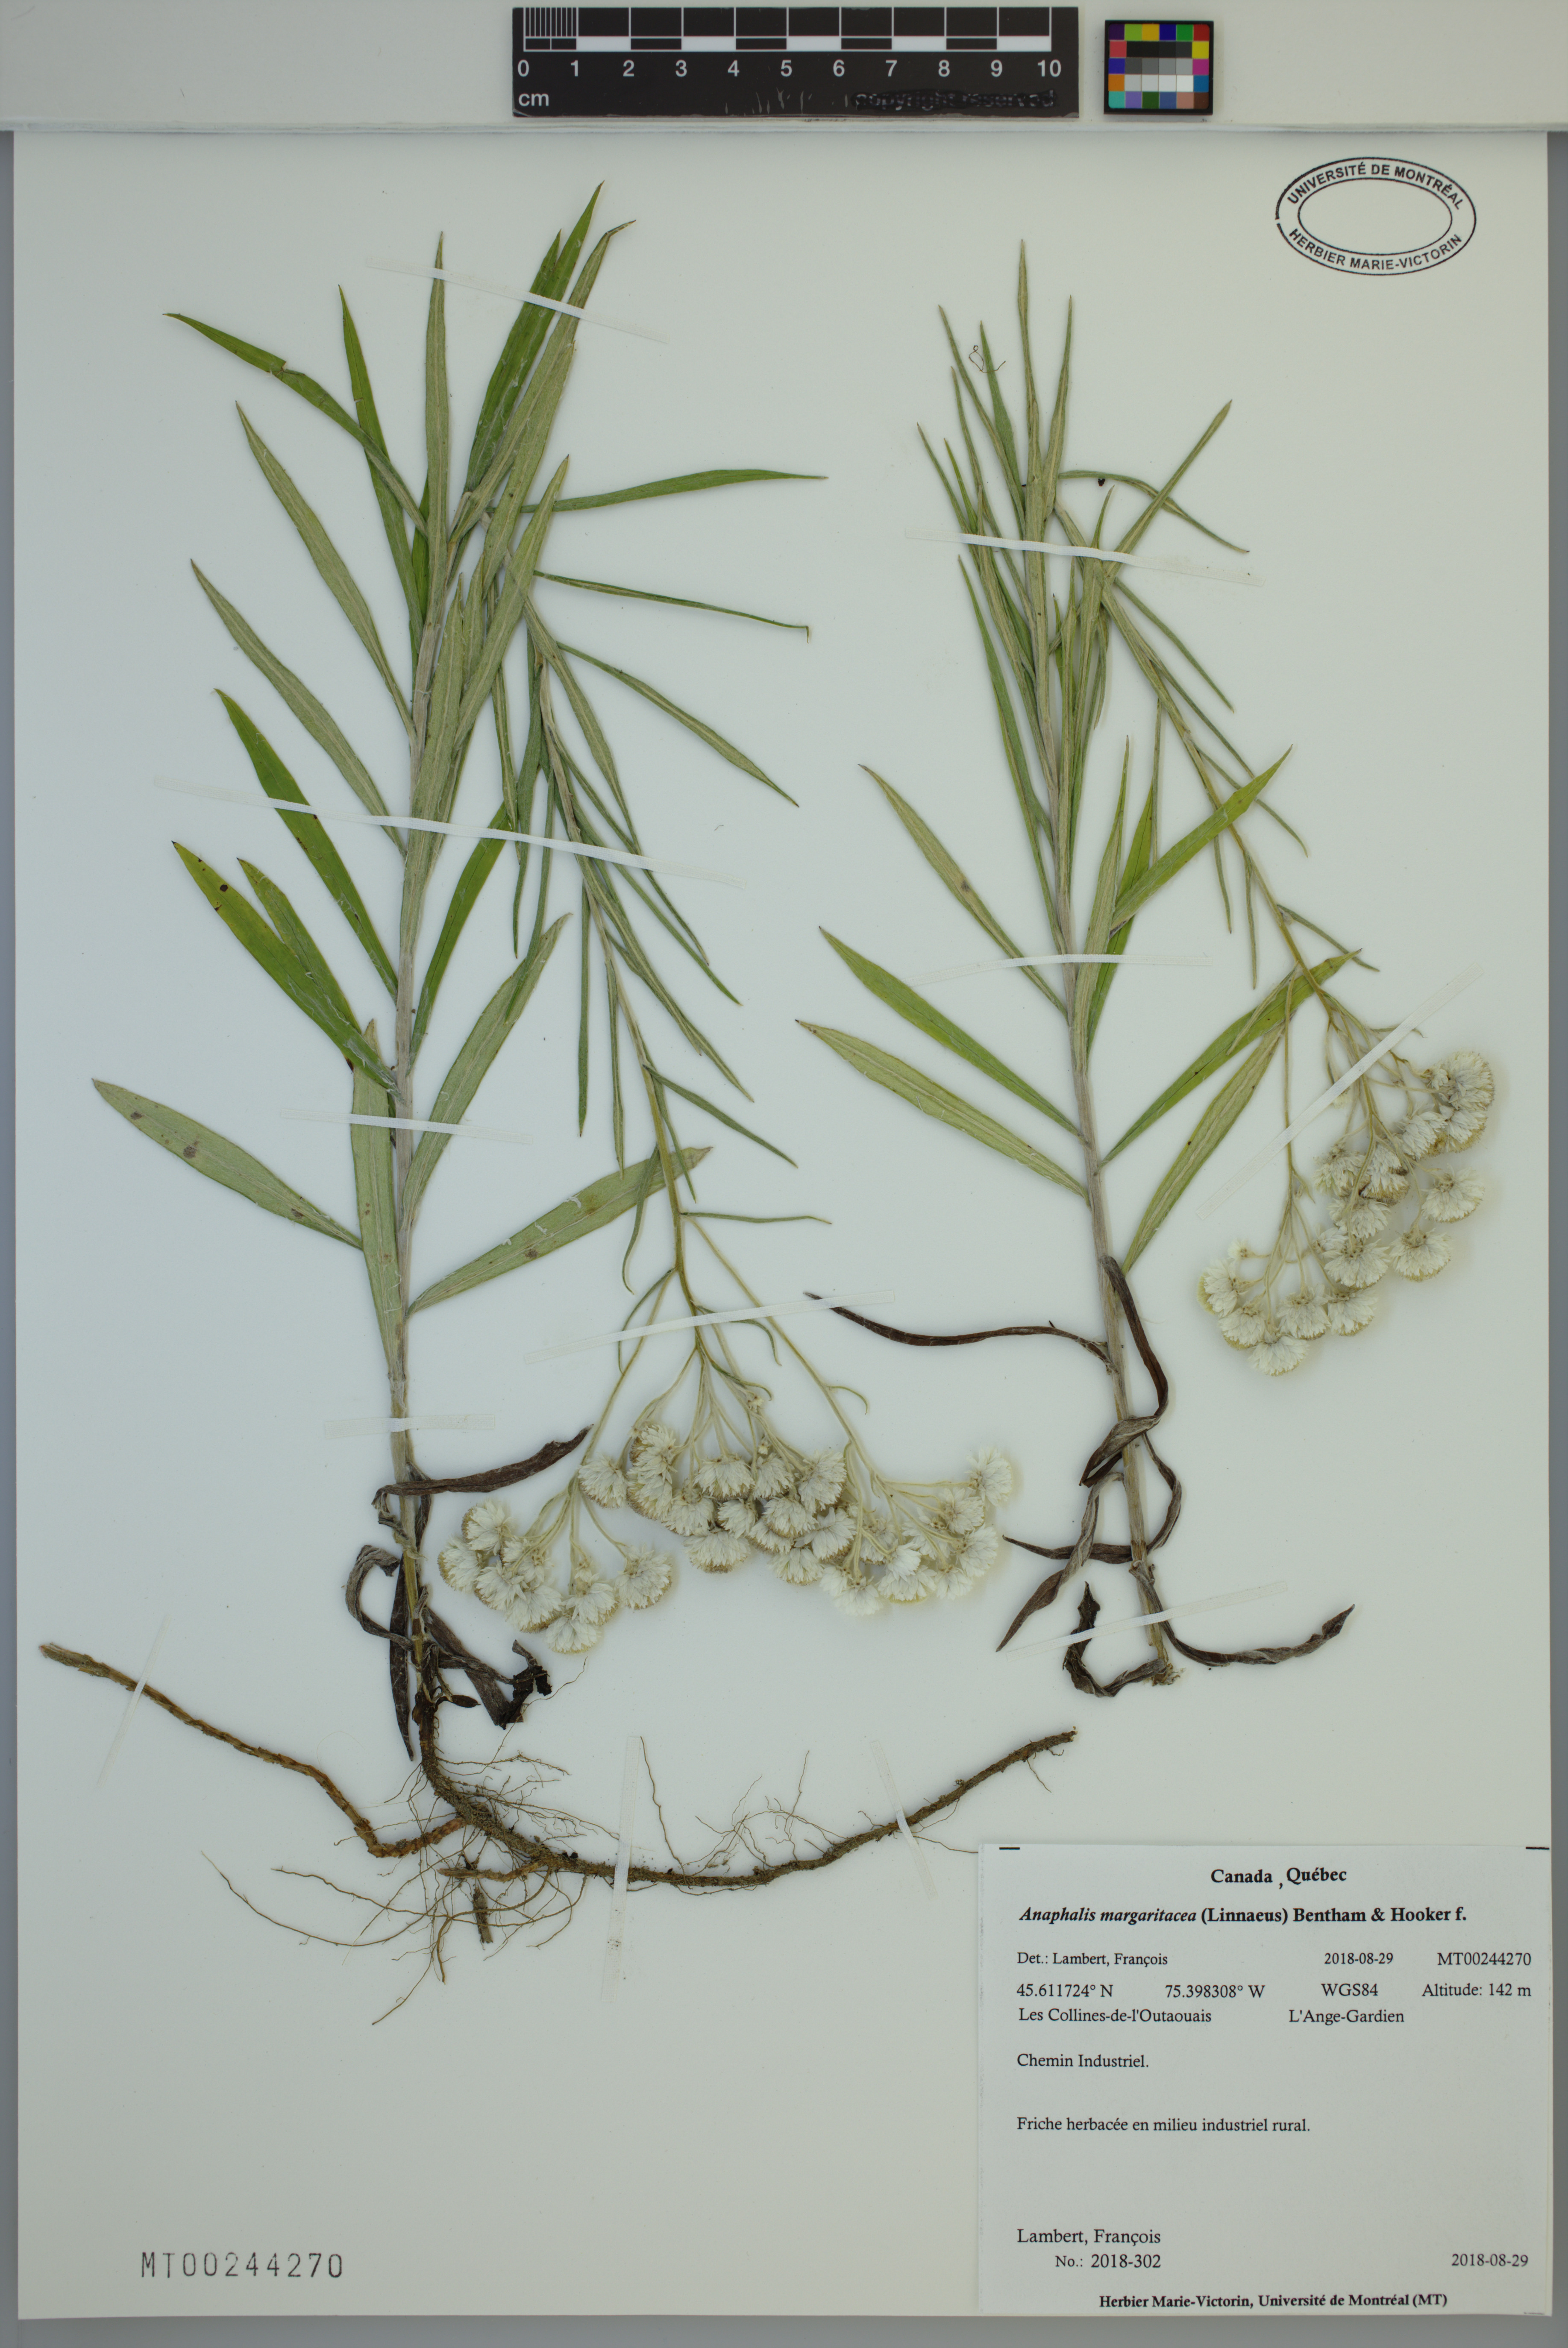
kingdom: Plantae
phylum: Tracheophyta
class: Magnoliopsida
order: Asterales
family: Asteraceae
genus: Anaphalis
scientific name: Anaphalis margaritacea
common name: Pearly everlasting
